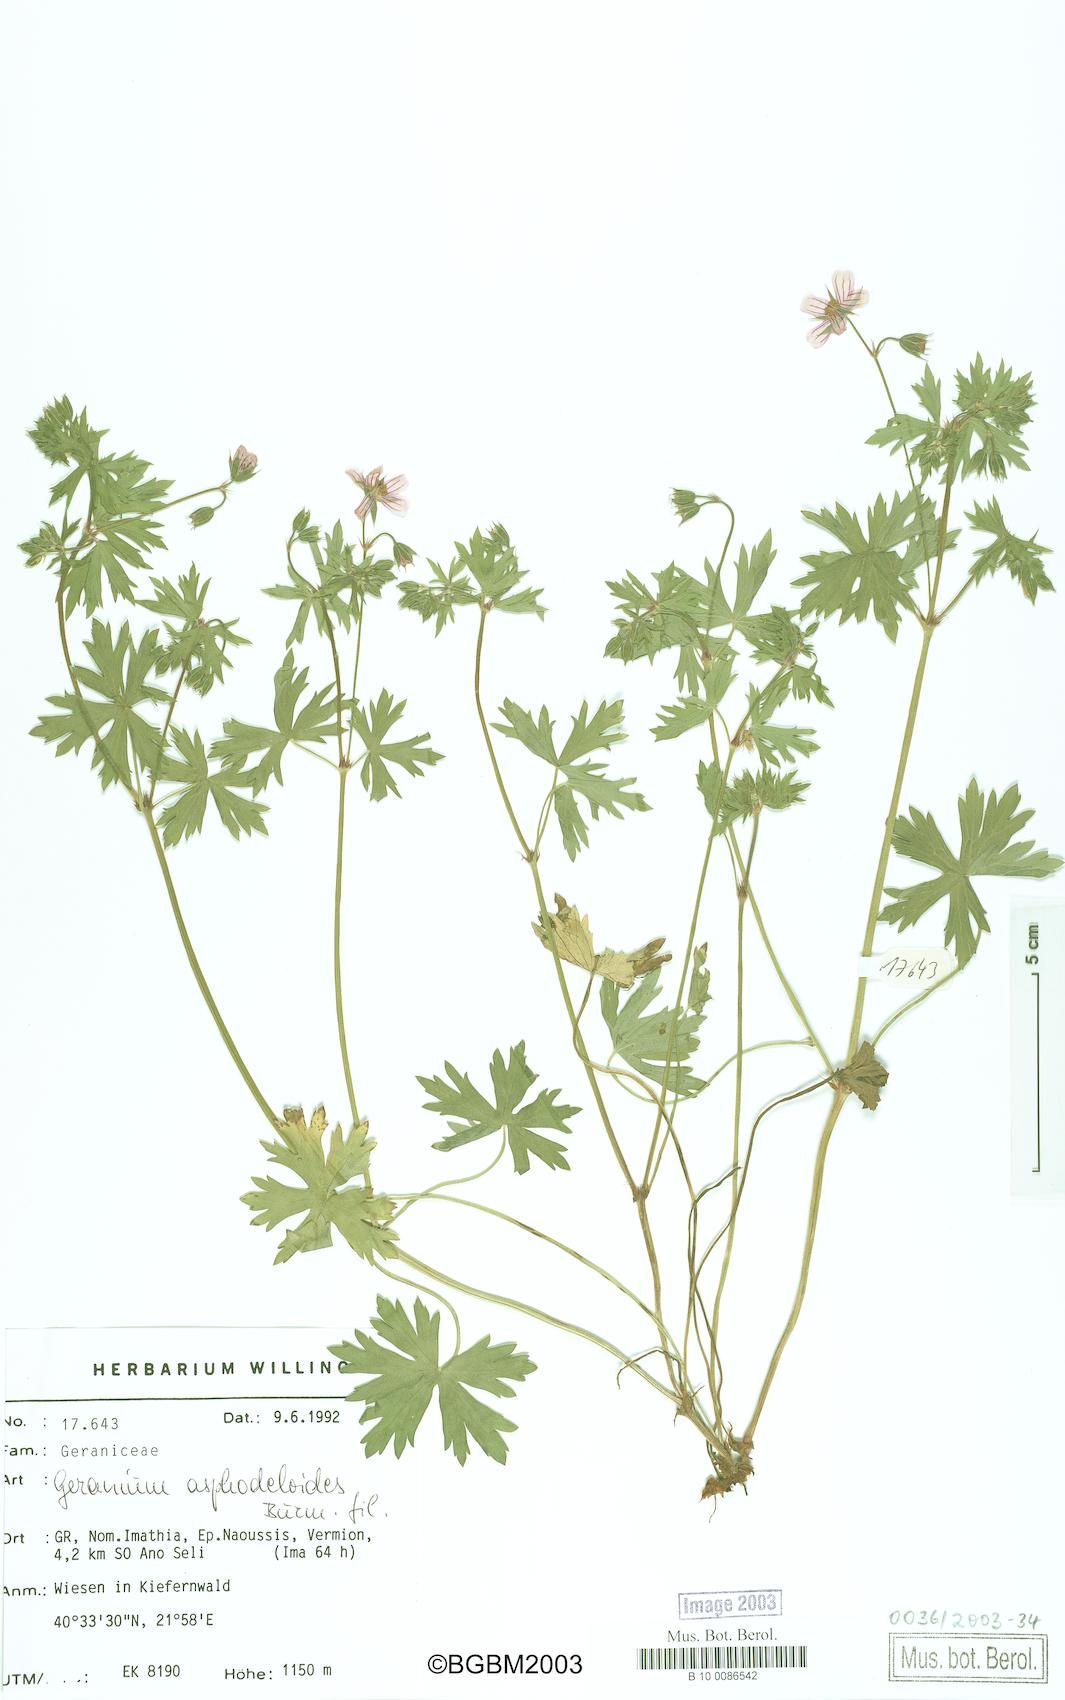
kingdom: Plantae
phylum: Tracheophyta
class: Magnoliopsida
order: Geraniales
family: Geraniaceae
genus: Geranium
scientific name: Geranium asphodeloides
